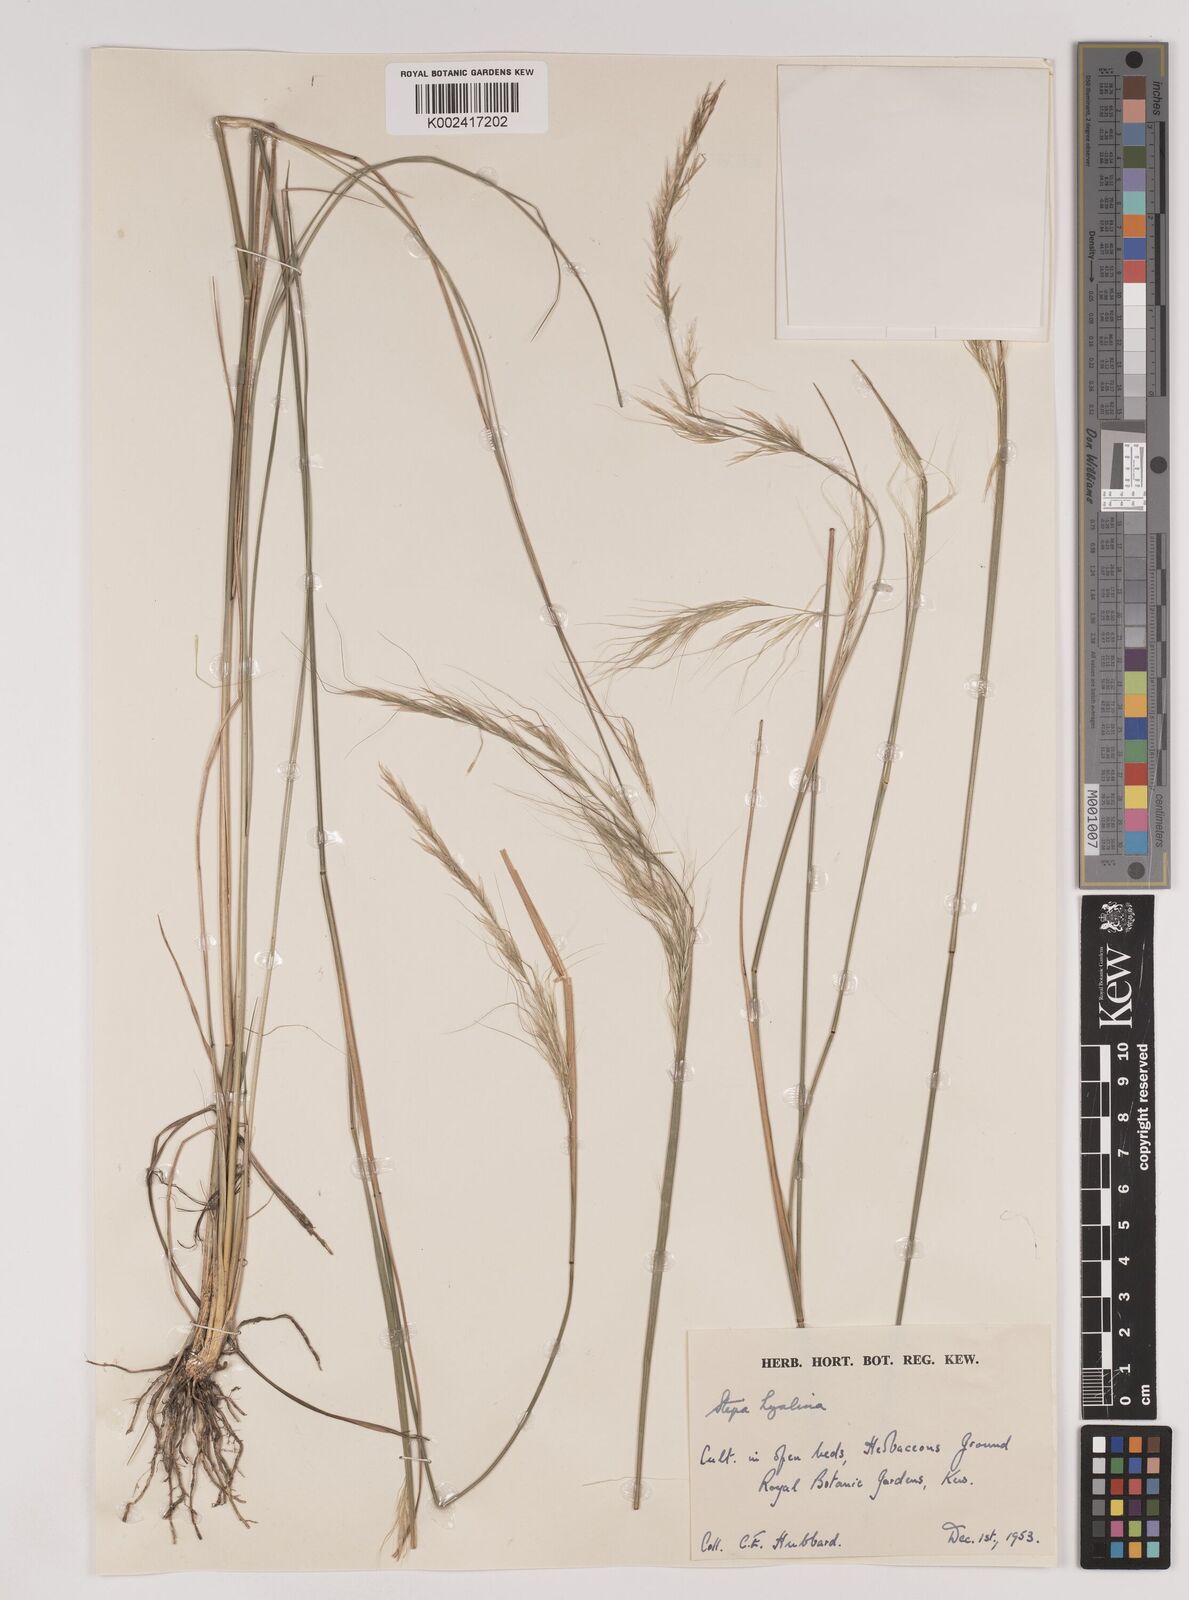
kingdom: Plantae
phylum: Tracheophyta
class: Liliopsida
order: Poales
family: Poaceae
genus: Nassella
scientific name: Nassella formicarum
